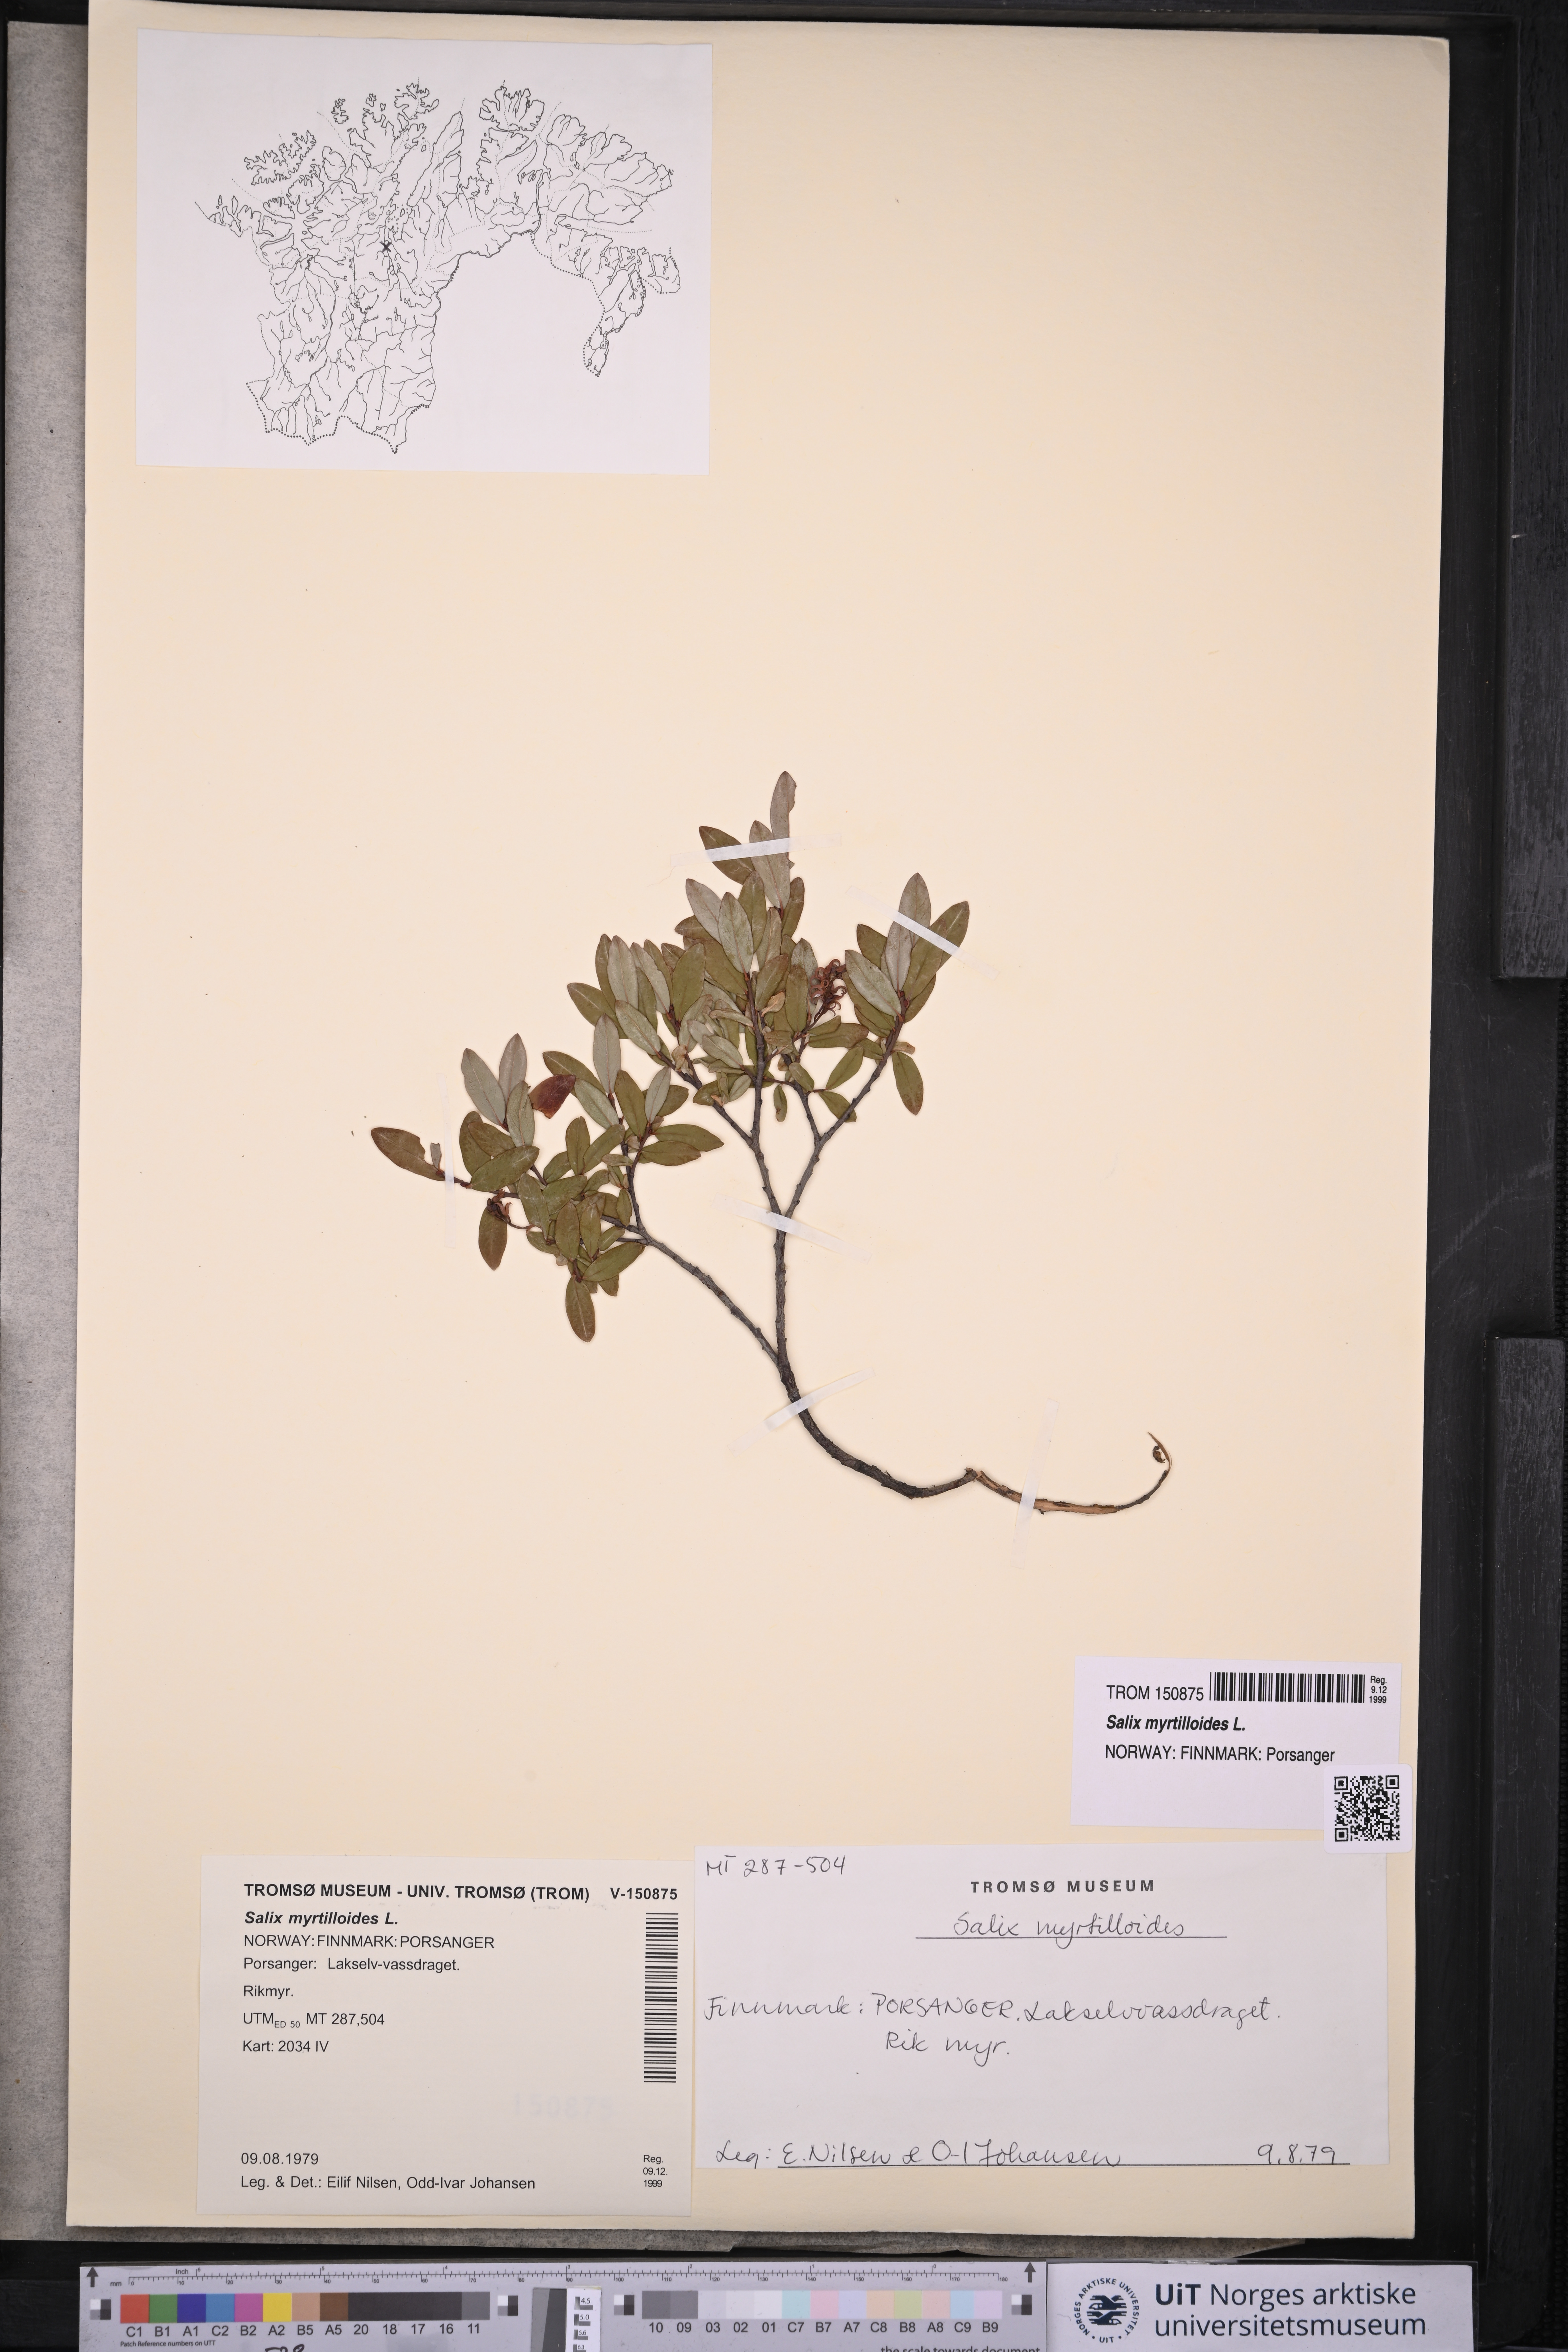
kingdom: Plantae
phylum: Tracheophyta
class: Magnoliopsida
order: Malpighiales
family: Salicaceae
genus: Salix
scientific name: Salix myrtilloides
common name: Myrtle-leaved willow
